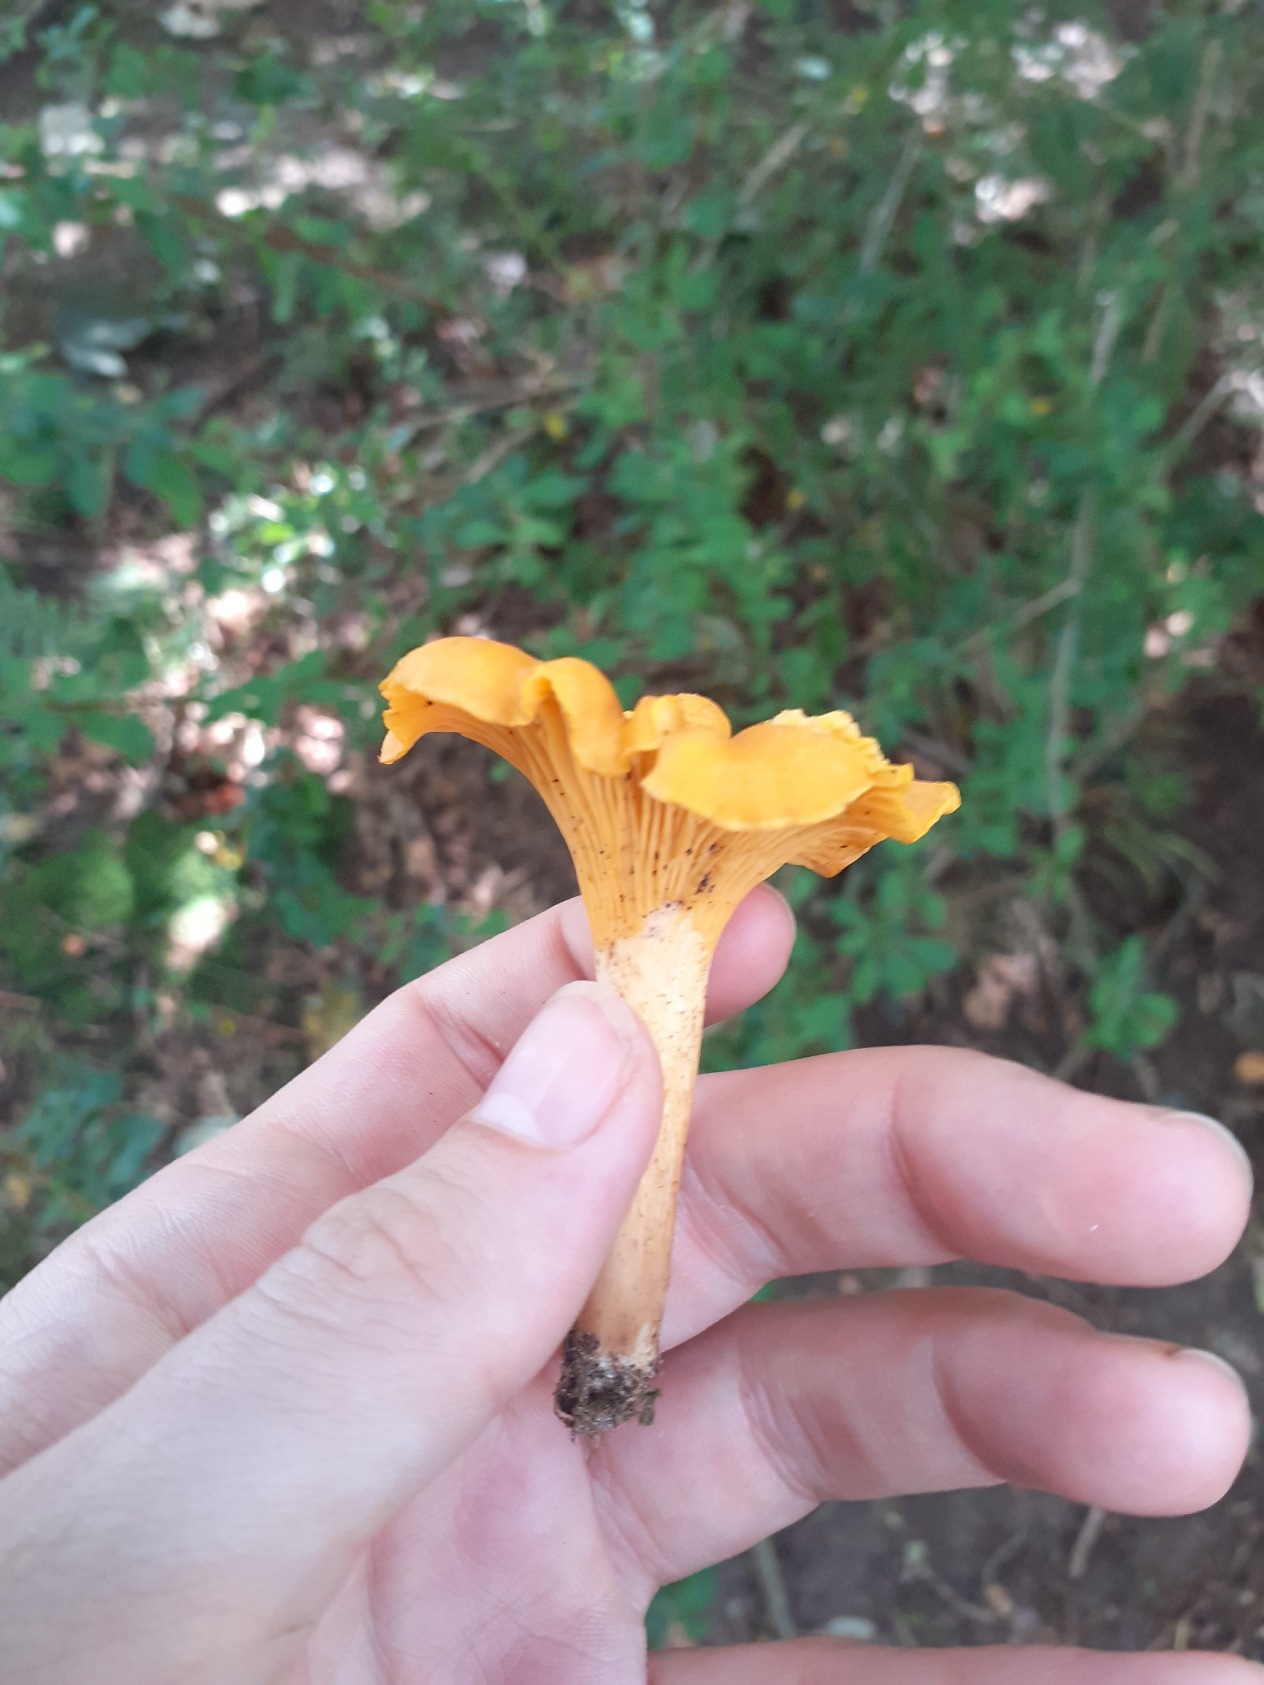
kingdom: Fungi
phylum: Basidiomycota
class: Agaricomycetes
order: Cantharellales
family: Hydnaceae
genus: Cantharellus
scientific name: Cantharellus cibarius
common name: Almindelig kantarel
